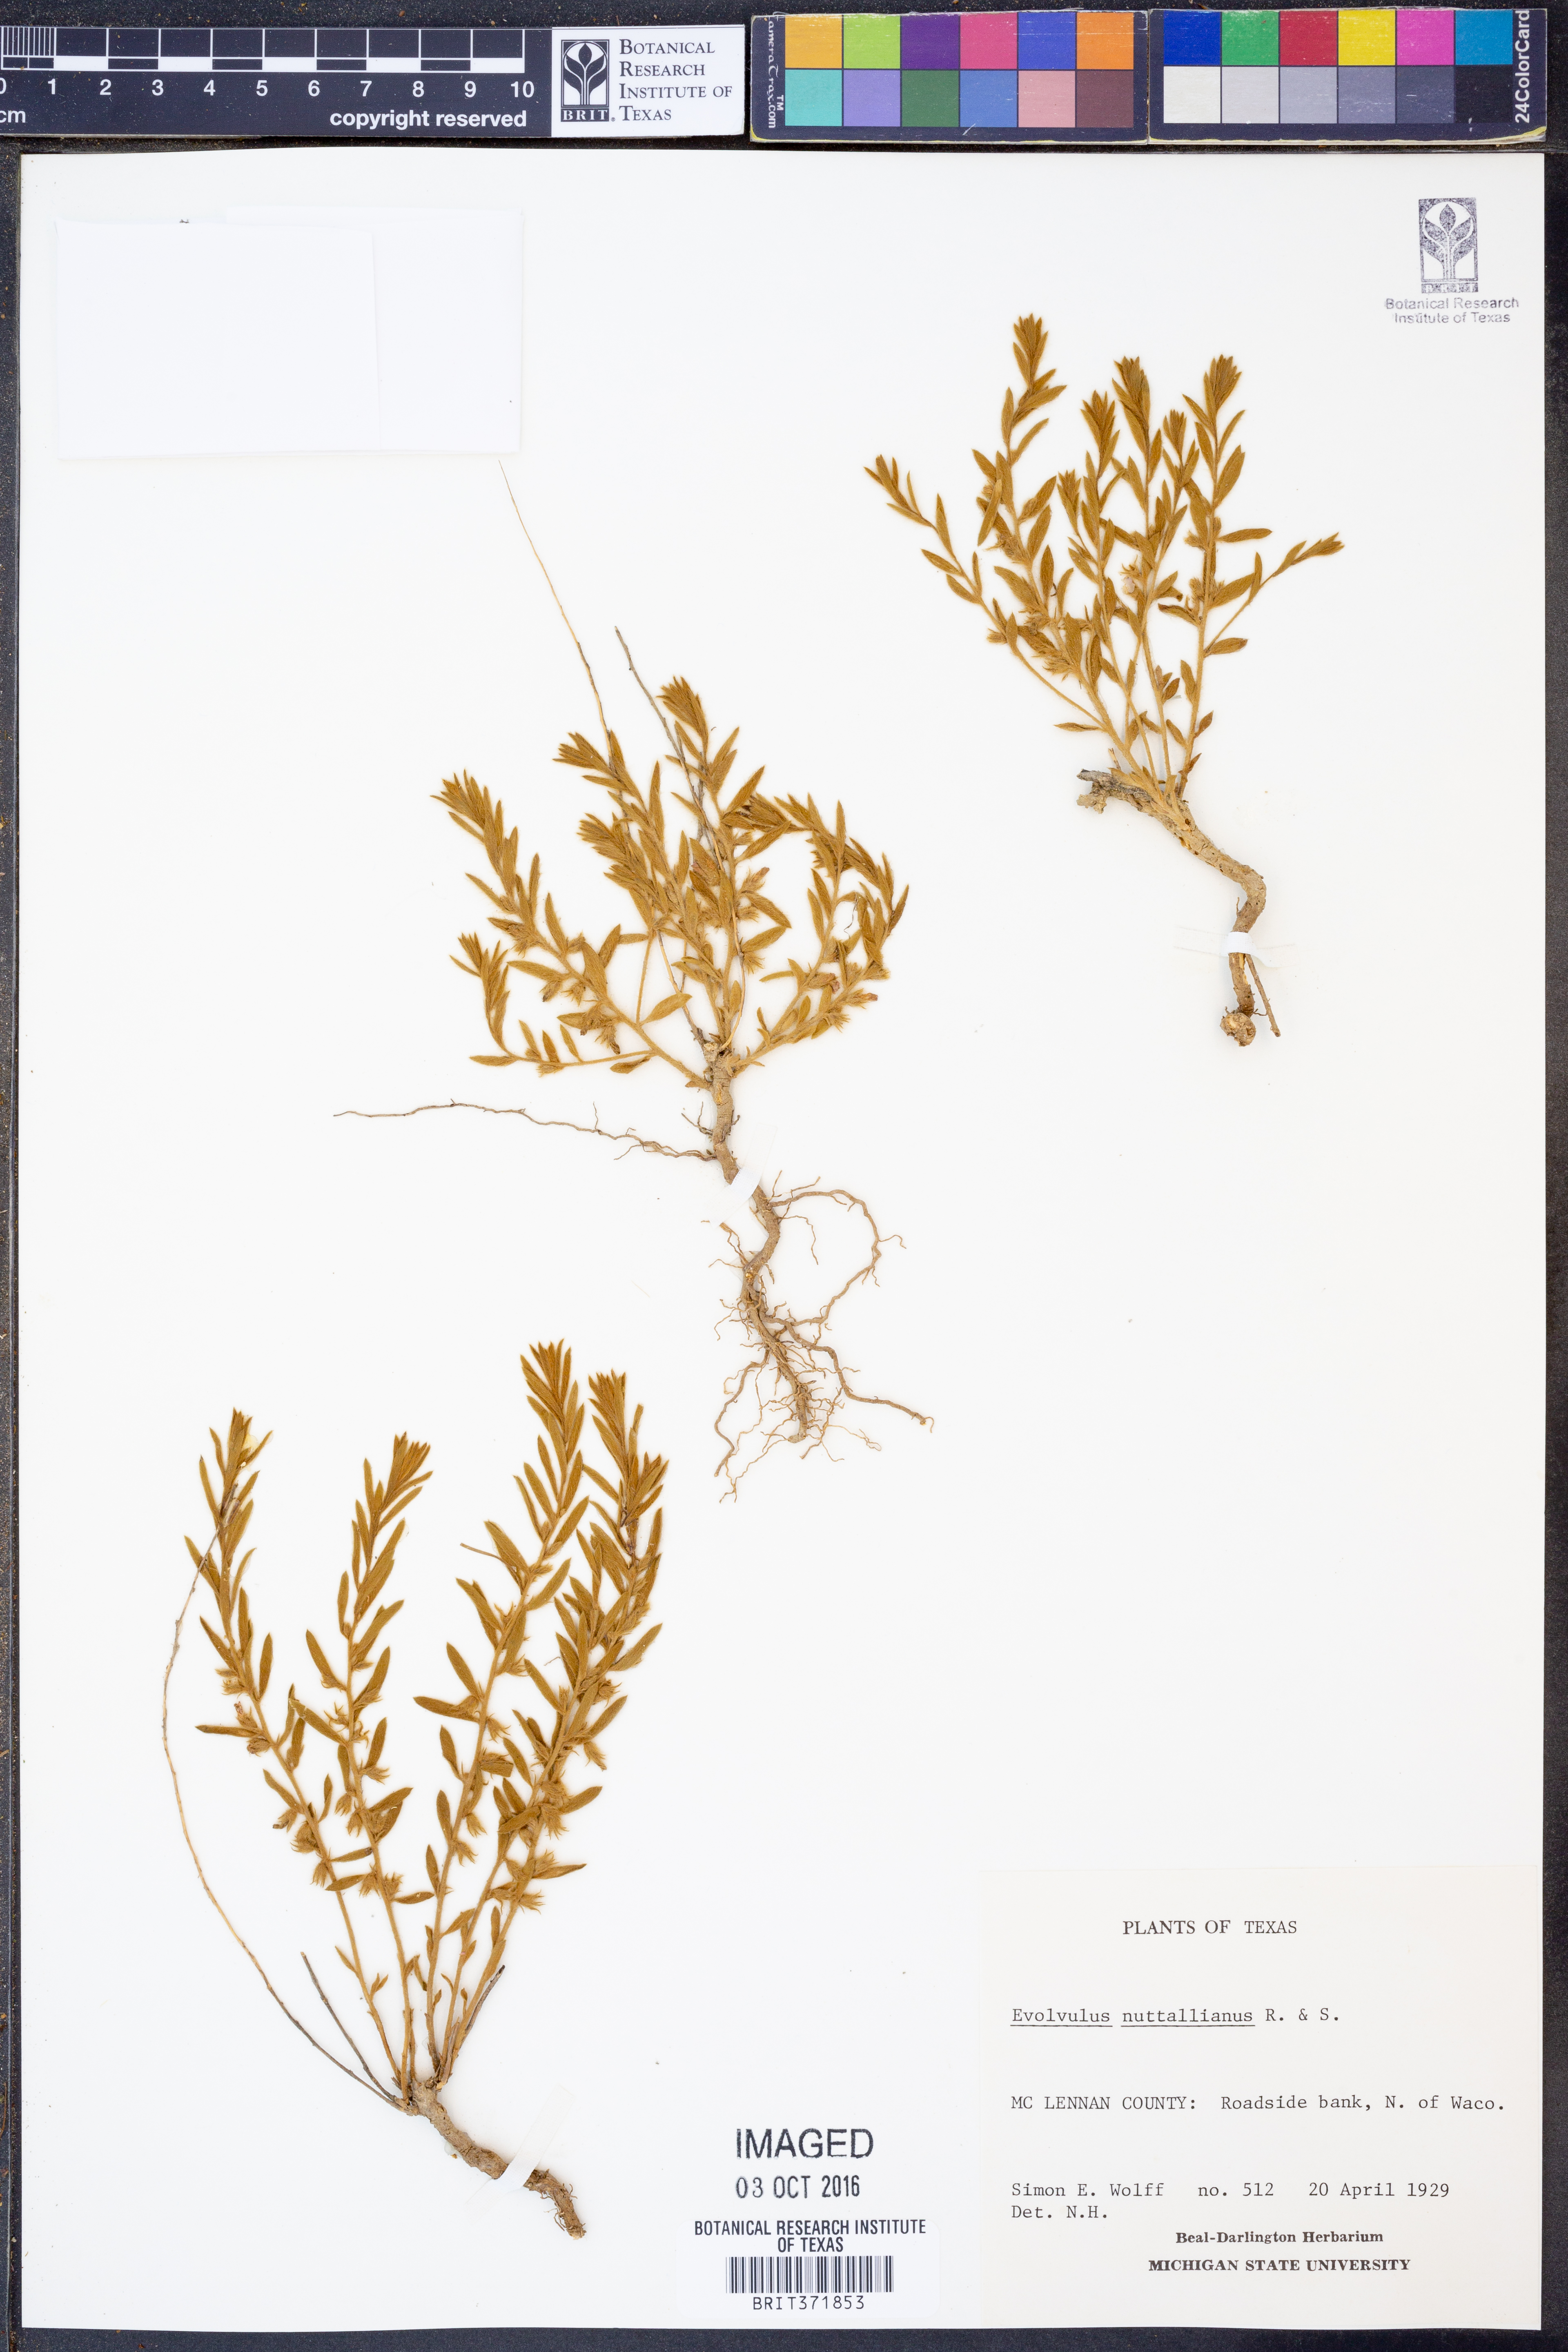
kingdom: Plantae
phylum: Tracheophyta
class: Magnoliopsida
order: Solanales
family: Convolvulaceae
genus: Evolvulus
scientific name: Evolvulus nuttallianus
